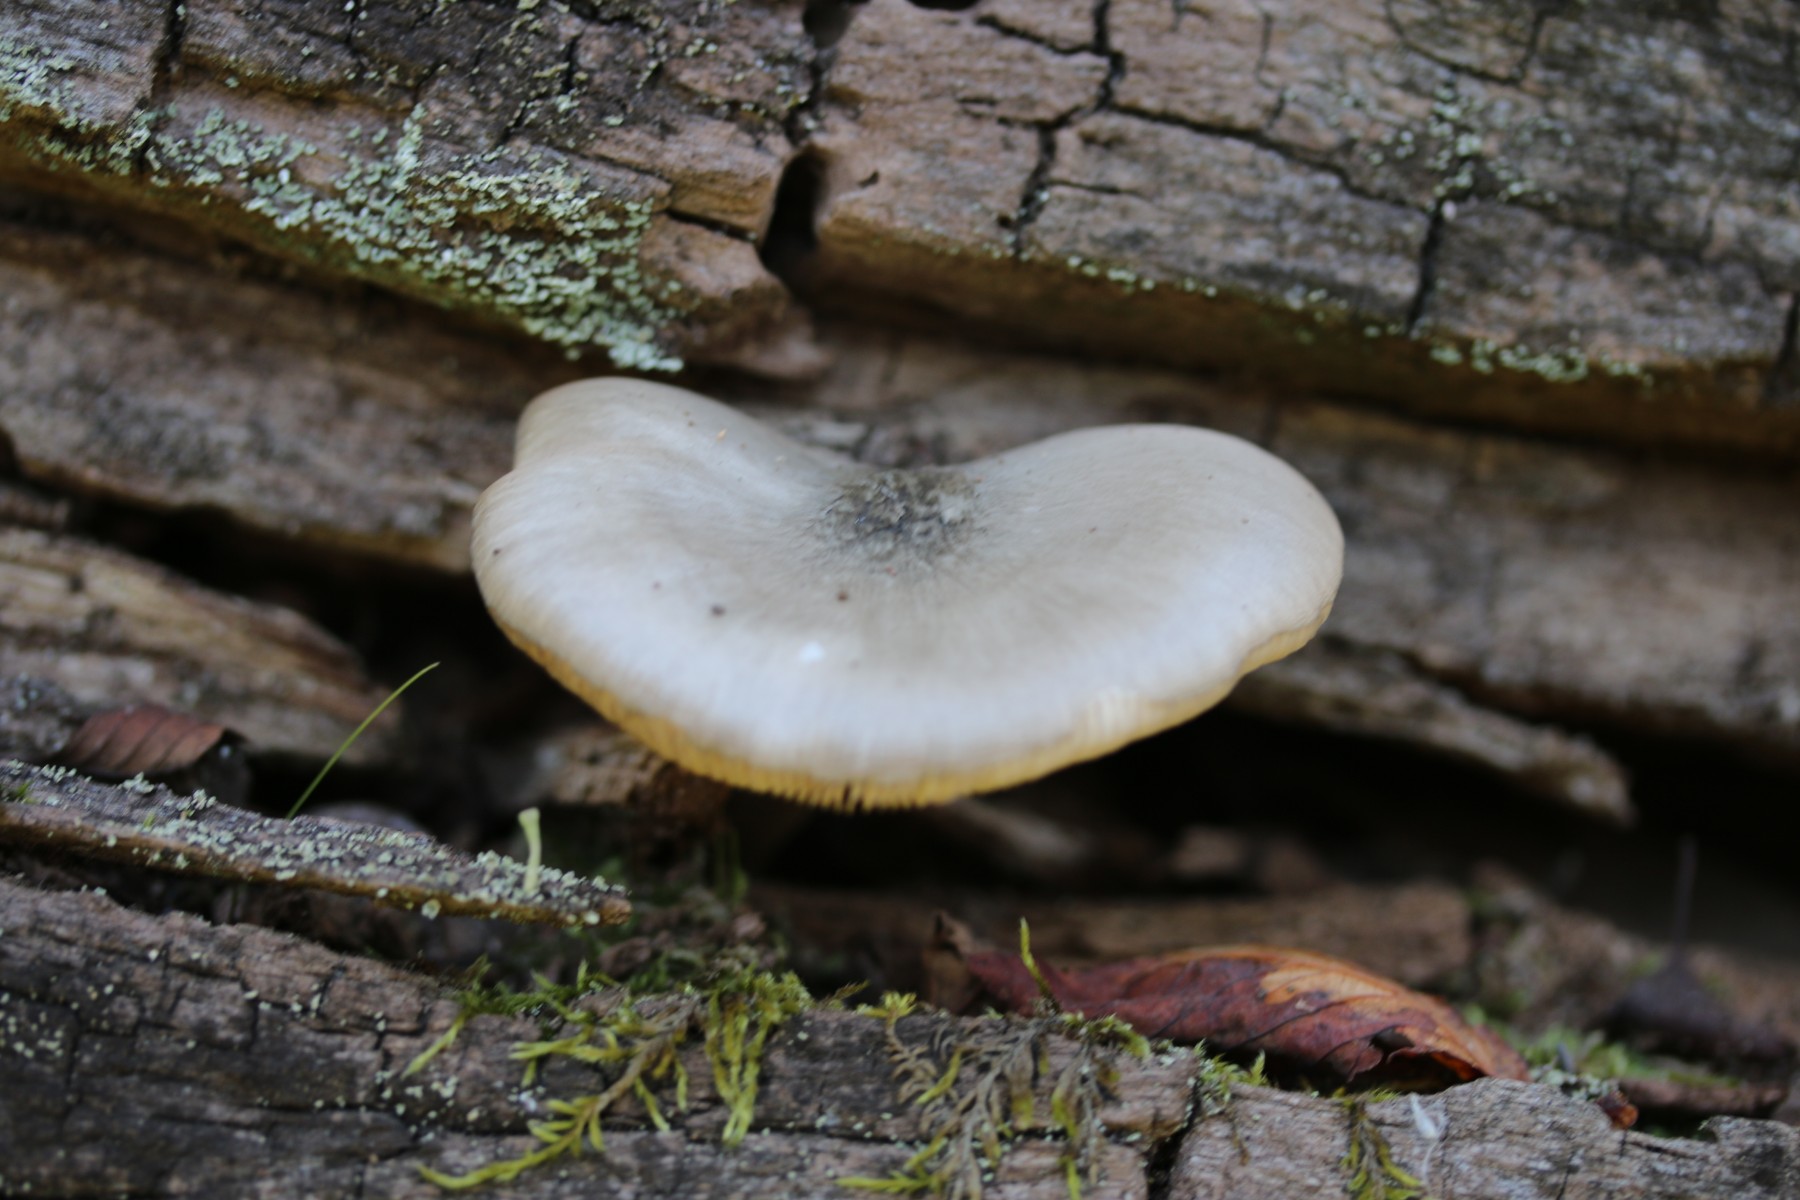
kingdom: Fungi
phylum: Basidiomycota
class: Agaricomycetes
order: Agaricales
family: Pluteaceae
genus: Pluteus
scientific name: Pluteus salicinus
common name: stiv skærmhat
